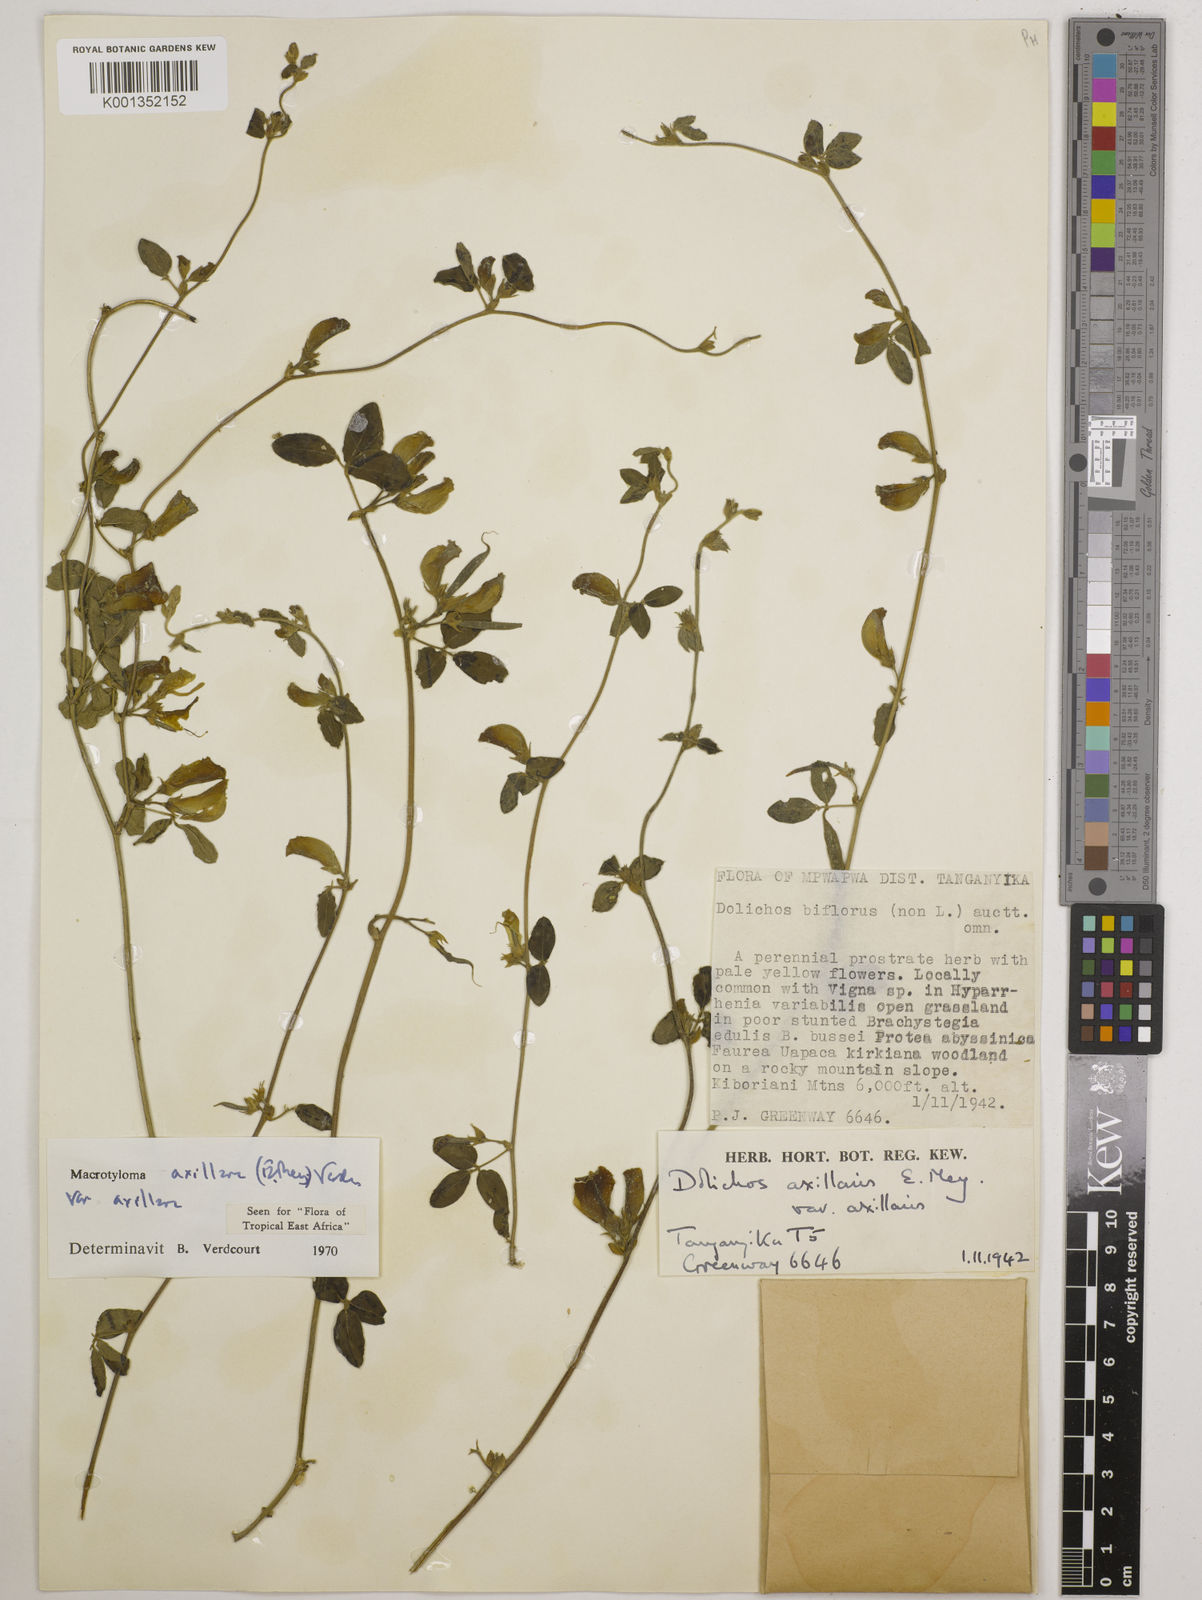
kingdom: Plantae
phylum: Tracheophyta
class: Magnoliopsida
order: Fabales
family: Fabaceae
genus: Macrotyloma
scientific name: Macrotyloma axillare
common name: Perennial horsegram
